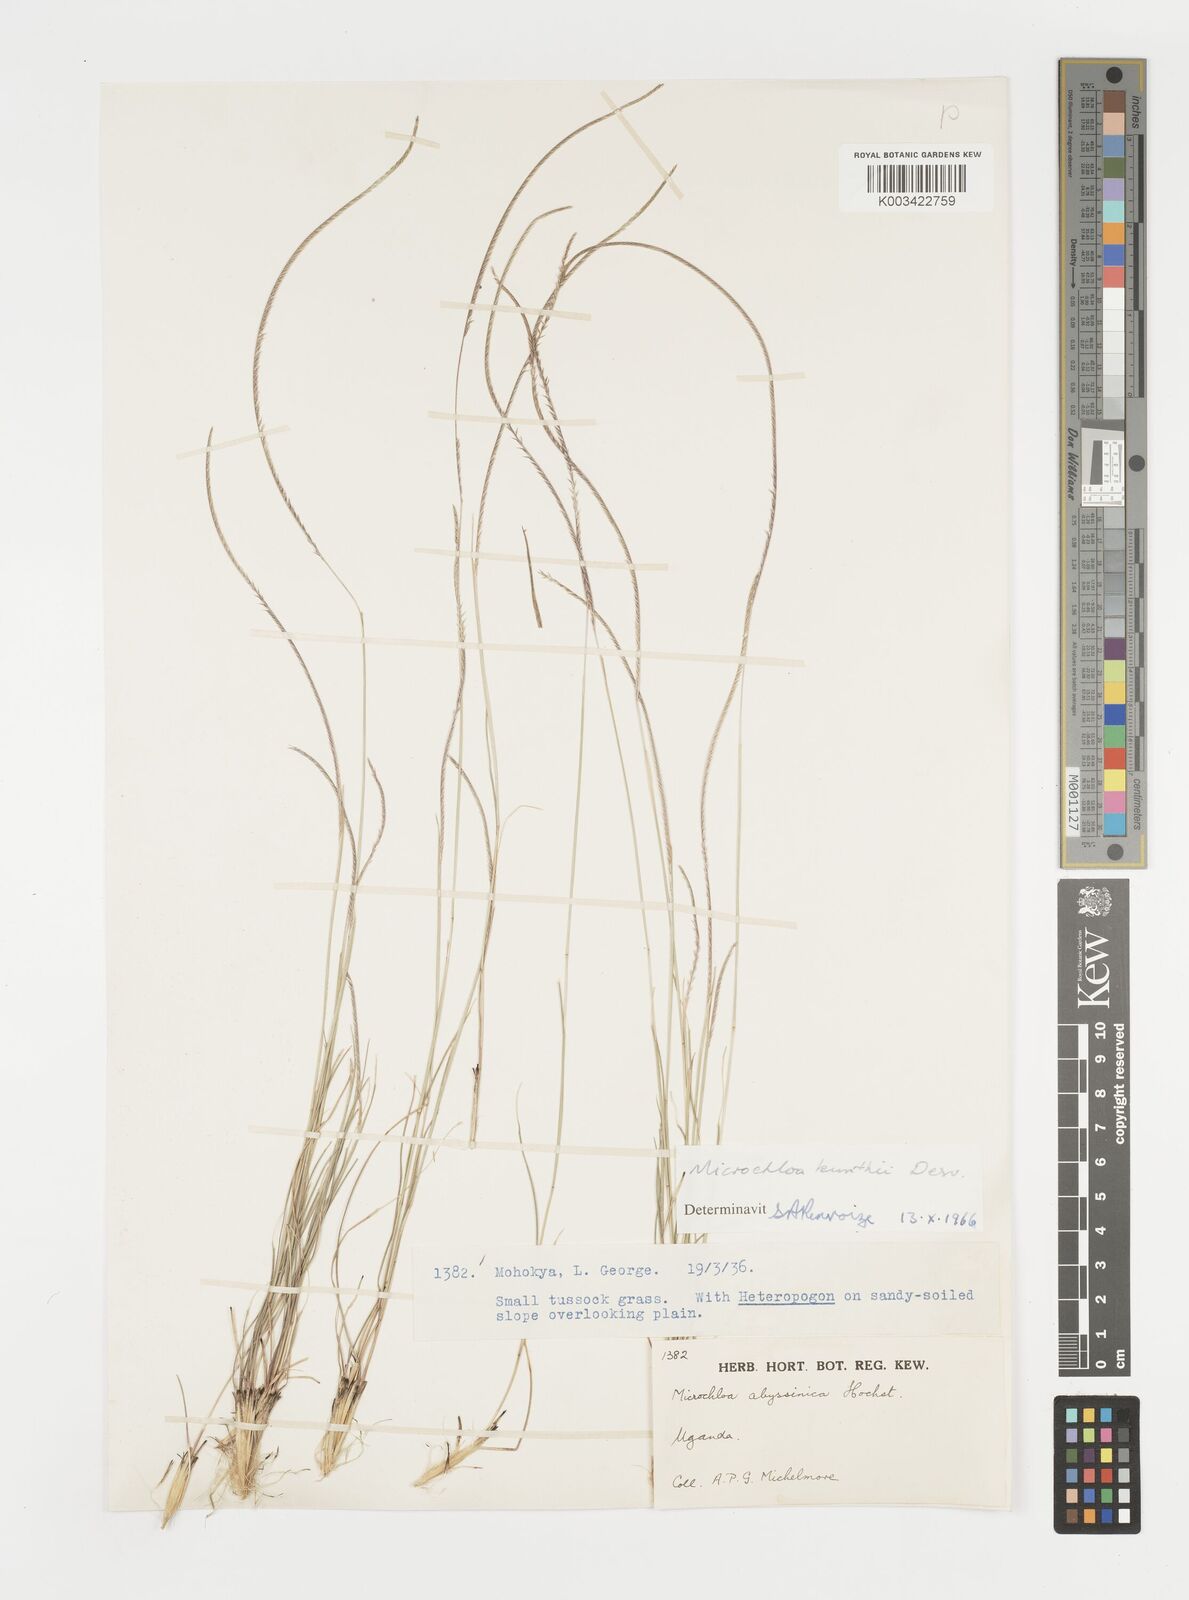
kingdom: Plantae
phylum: Tracheophyta
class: Liliopsida
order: Poales
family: Poaceae
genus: Microchloa
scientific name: Microchloa kunthii
